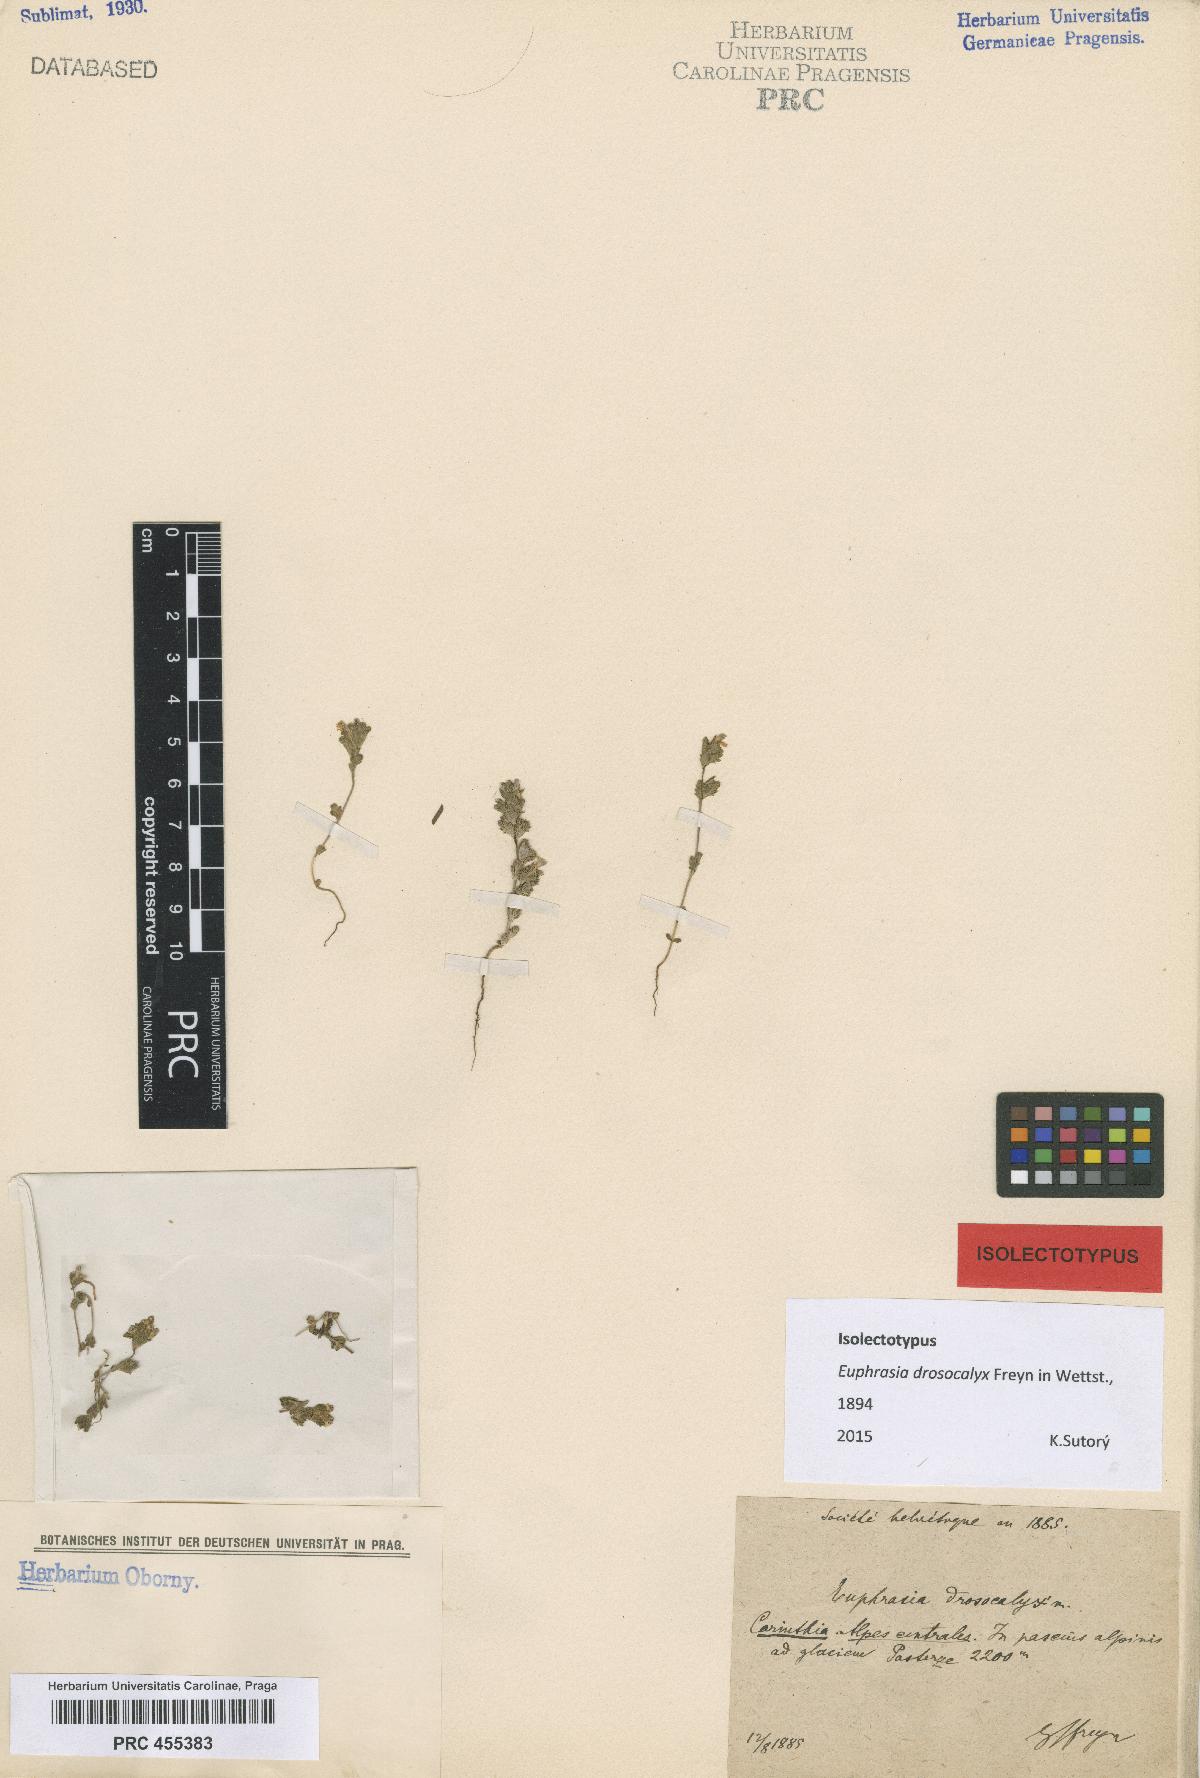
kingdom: Plantae
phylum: Tracheophyta
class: Magnoliopsida
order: Lamiales
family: Orobanchaceae
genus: Euphrasia
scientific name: Euphrasia drosocalyx
